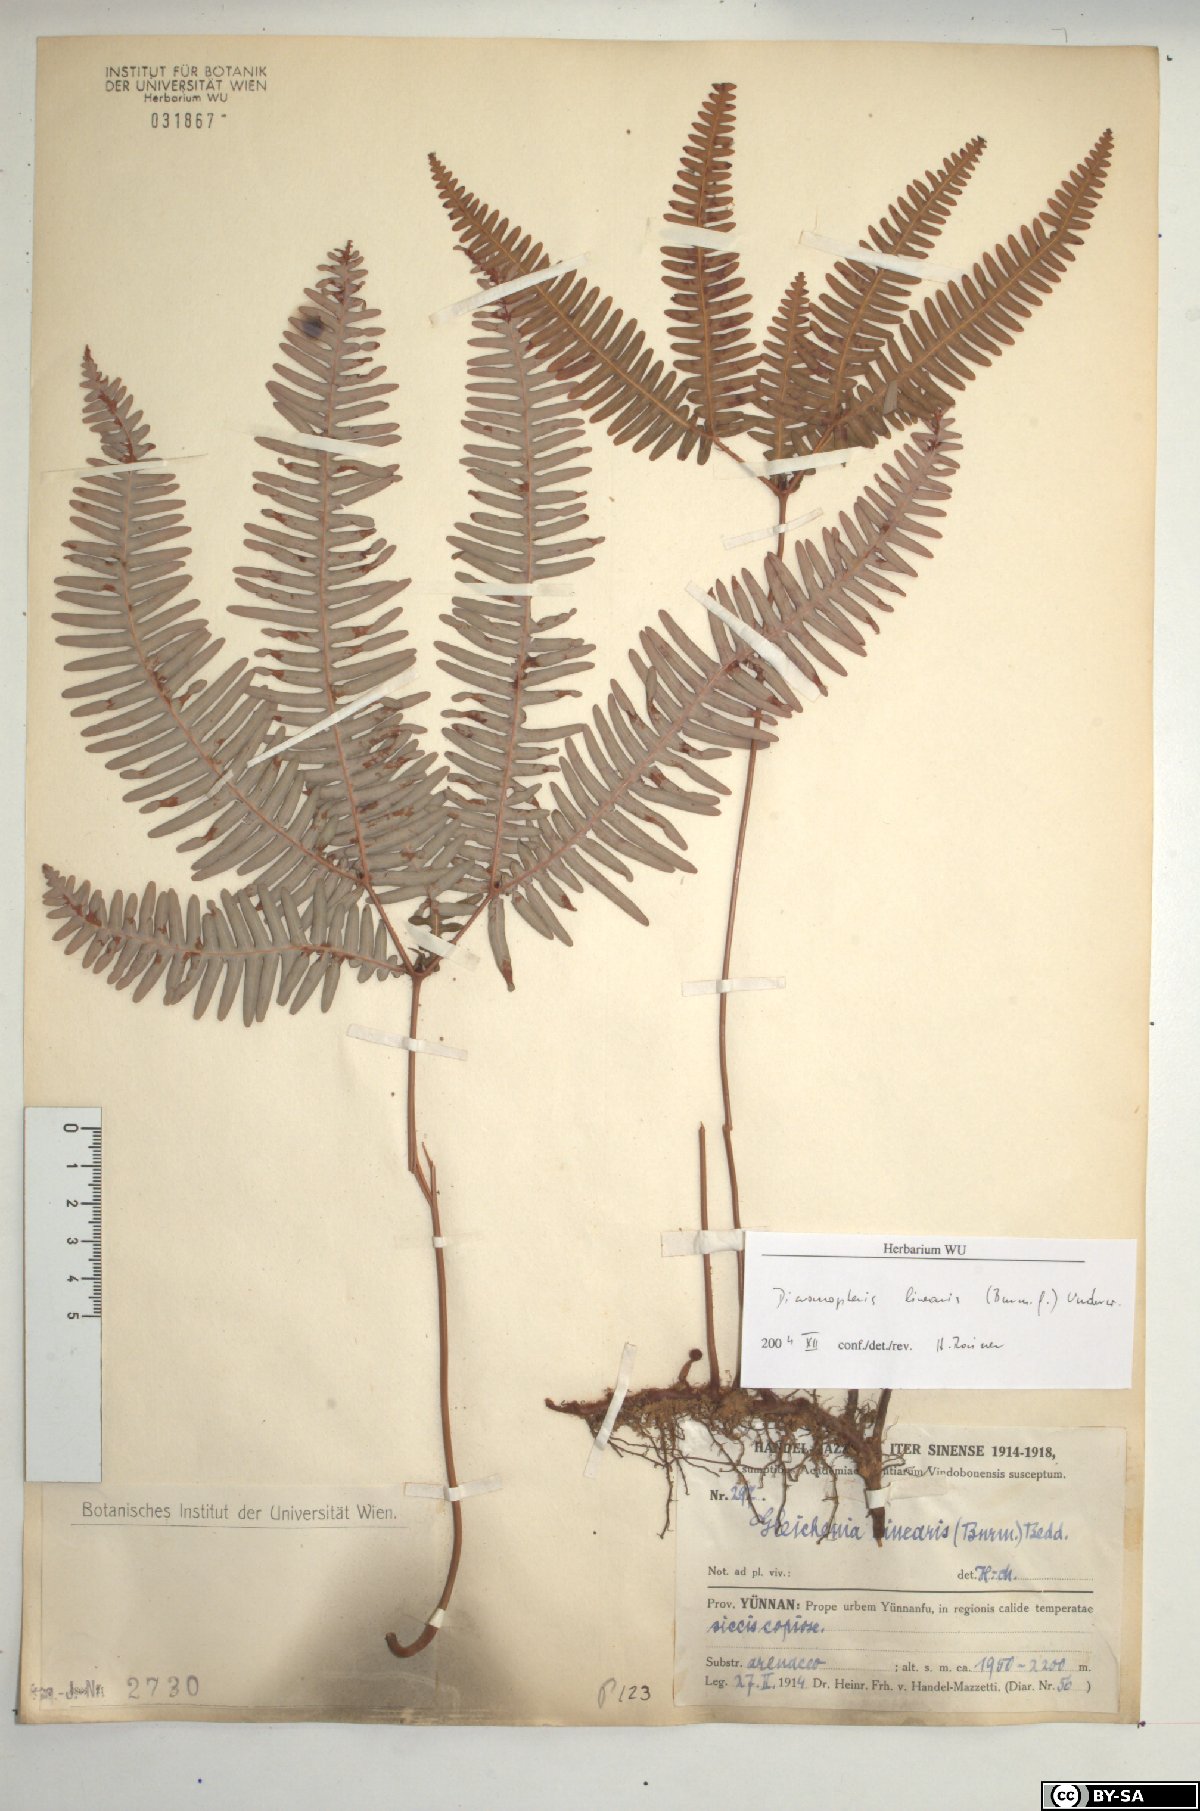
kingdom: Plantae
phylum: Tracheophyta
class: Polypodiopsida
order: Gleicheniales
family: Gleicheniaceae
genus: Dicranopteris
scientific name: Dicranopteris linearis
